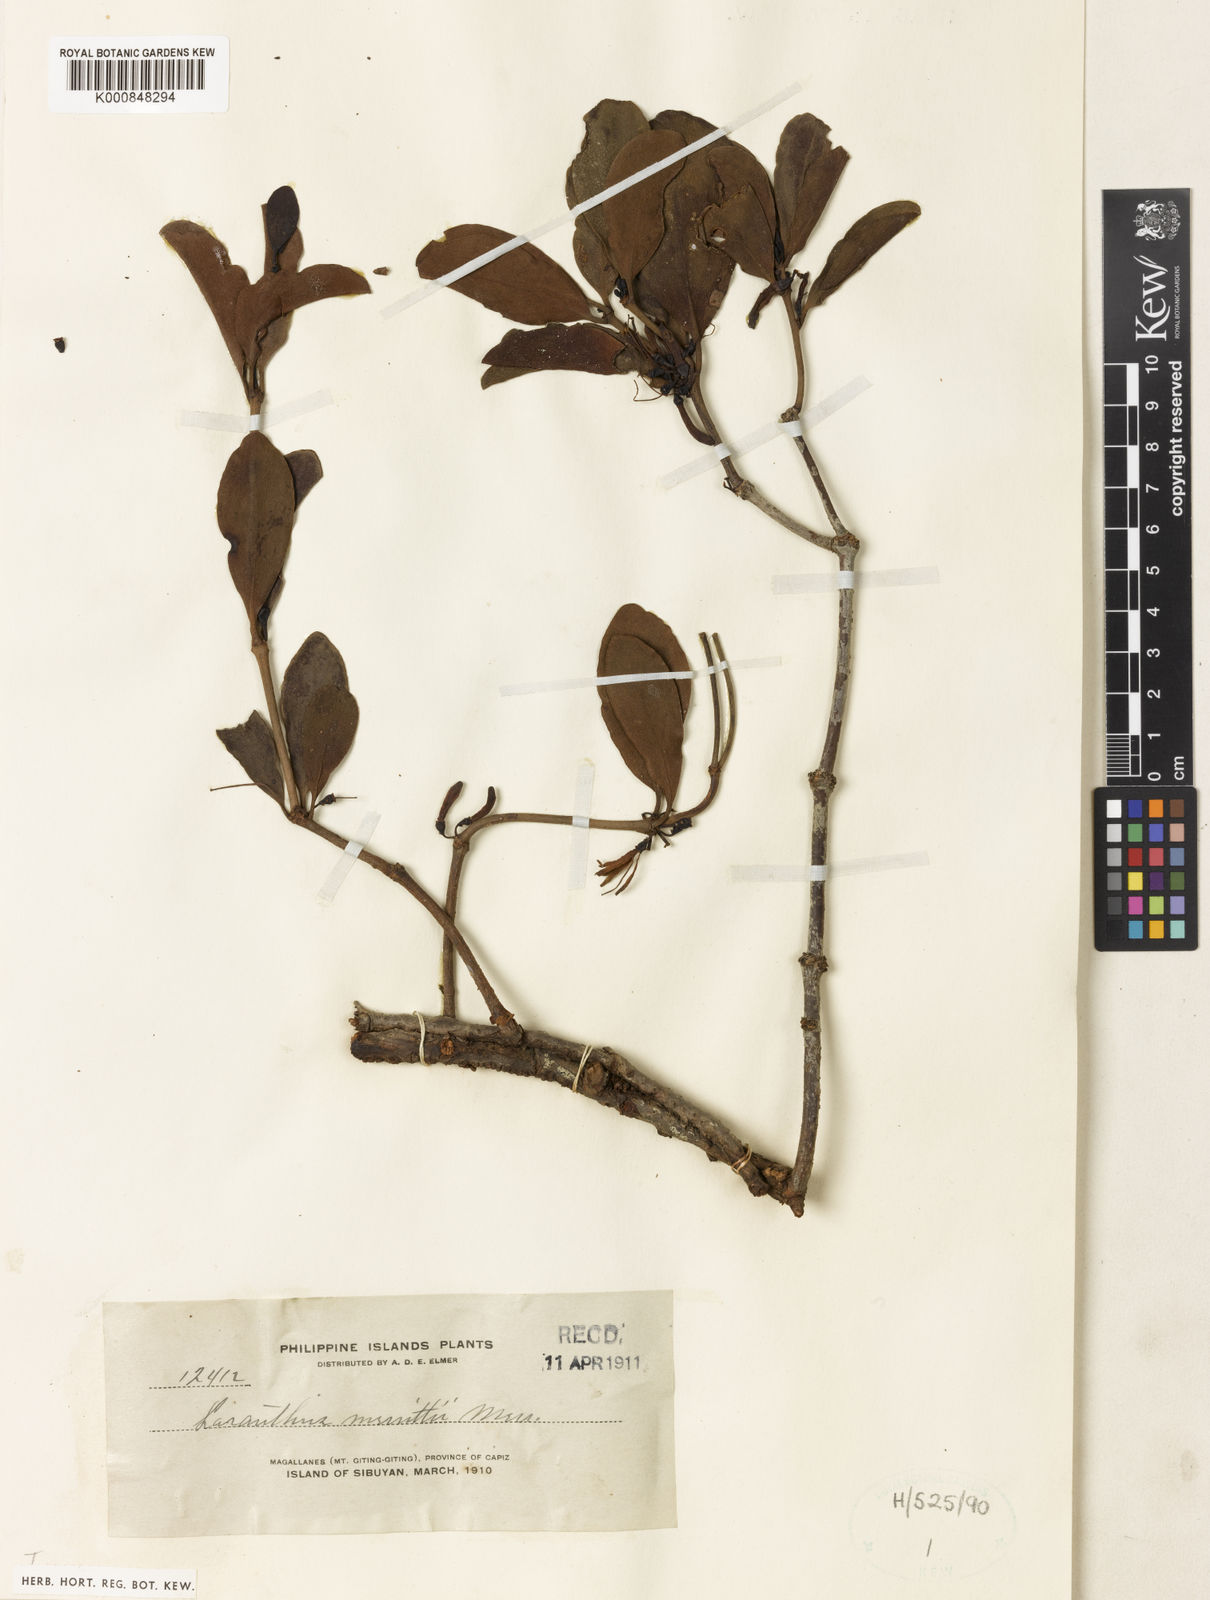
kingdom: Plantae
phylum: Tracheophyta
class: Magnoliopsida
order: Santalales
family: Loranthaceae
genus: Amyema
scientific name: Amyema beccarii
